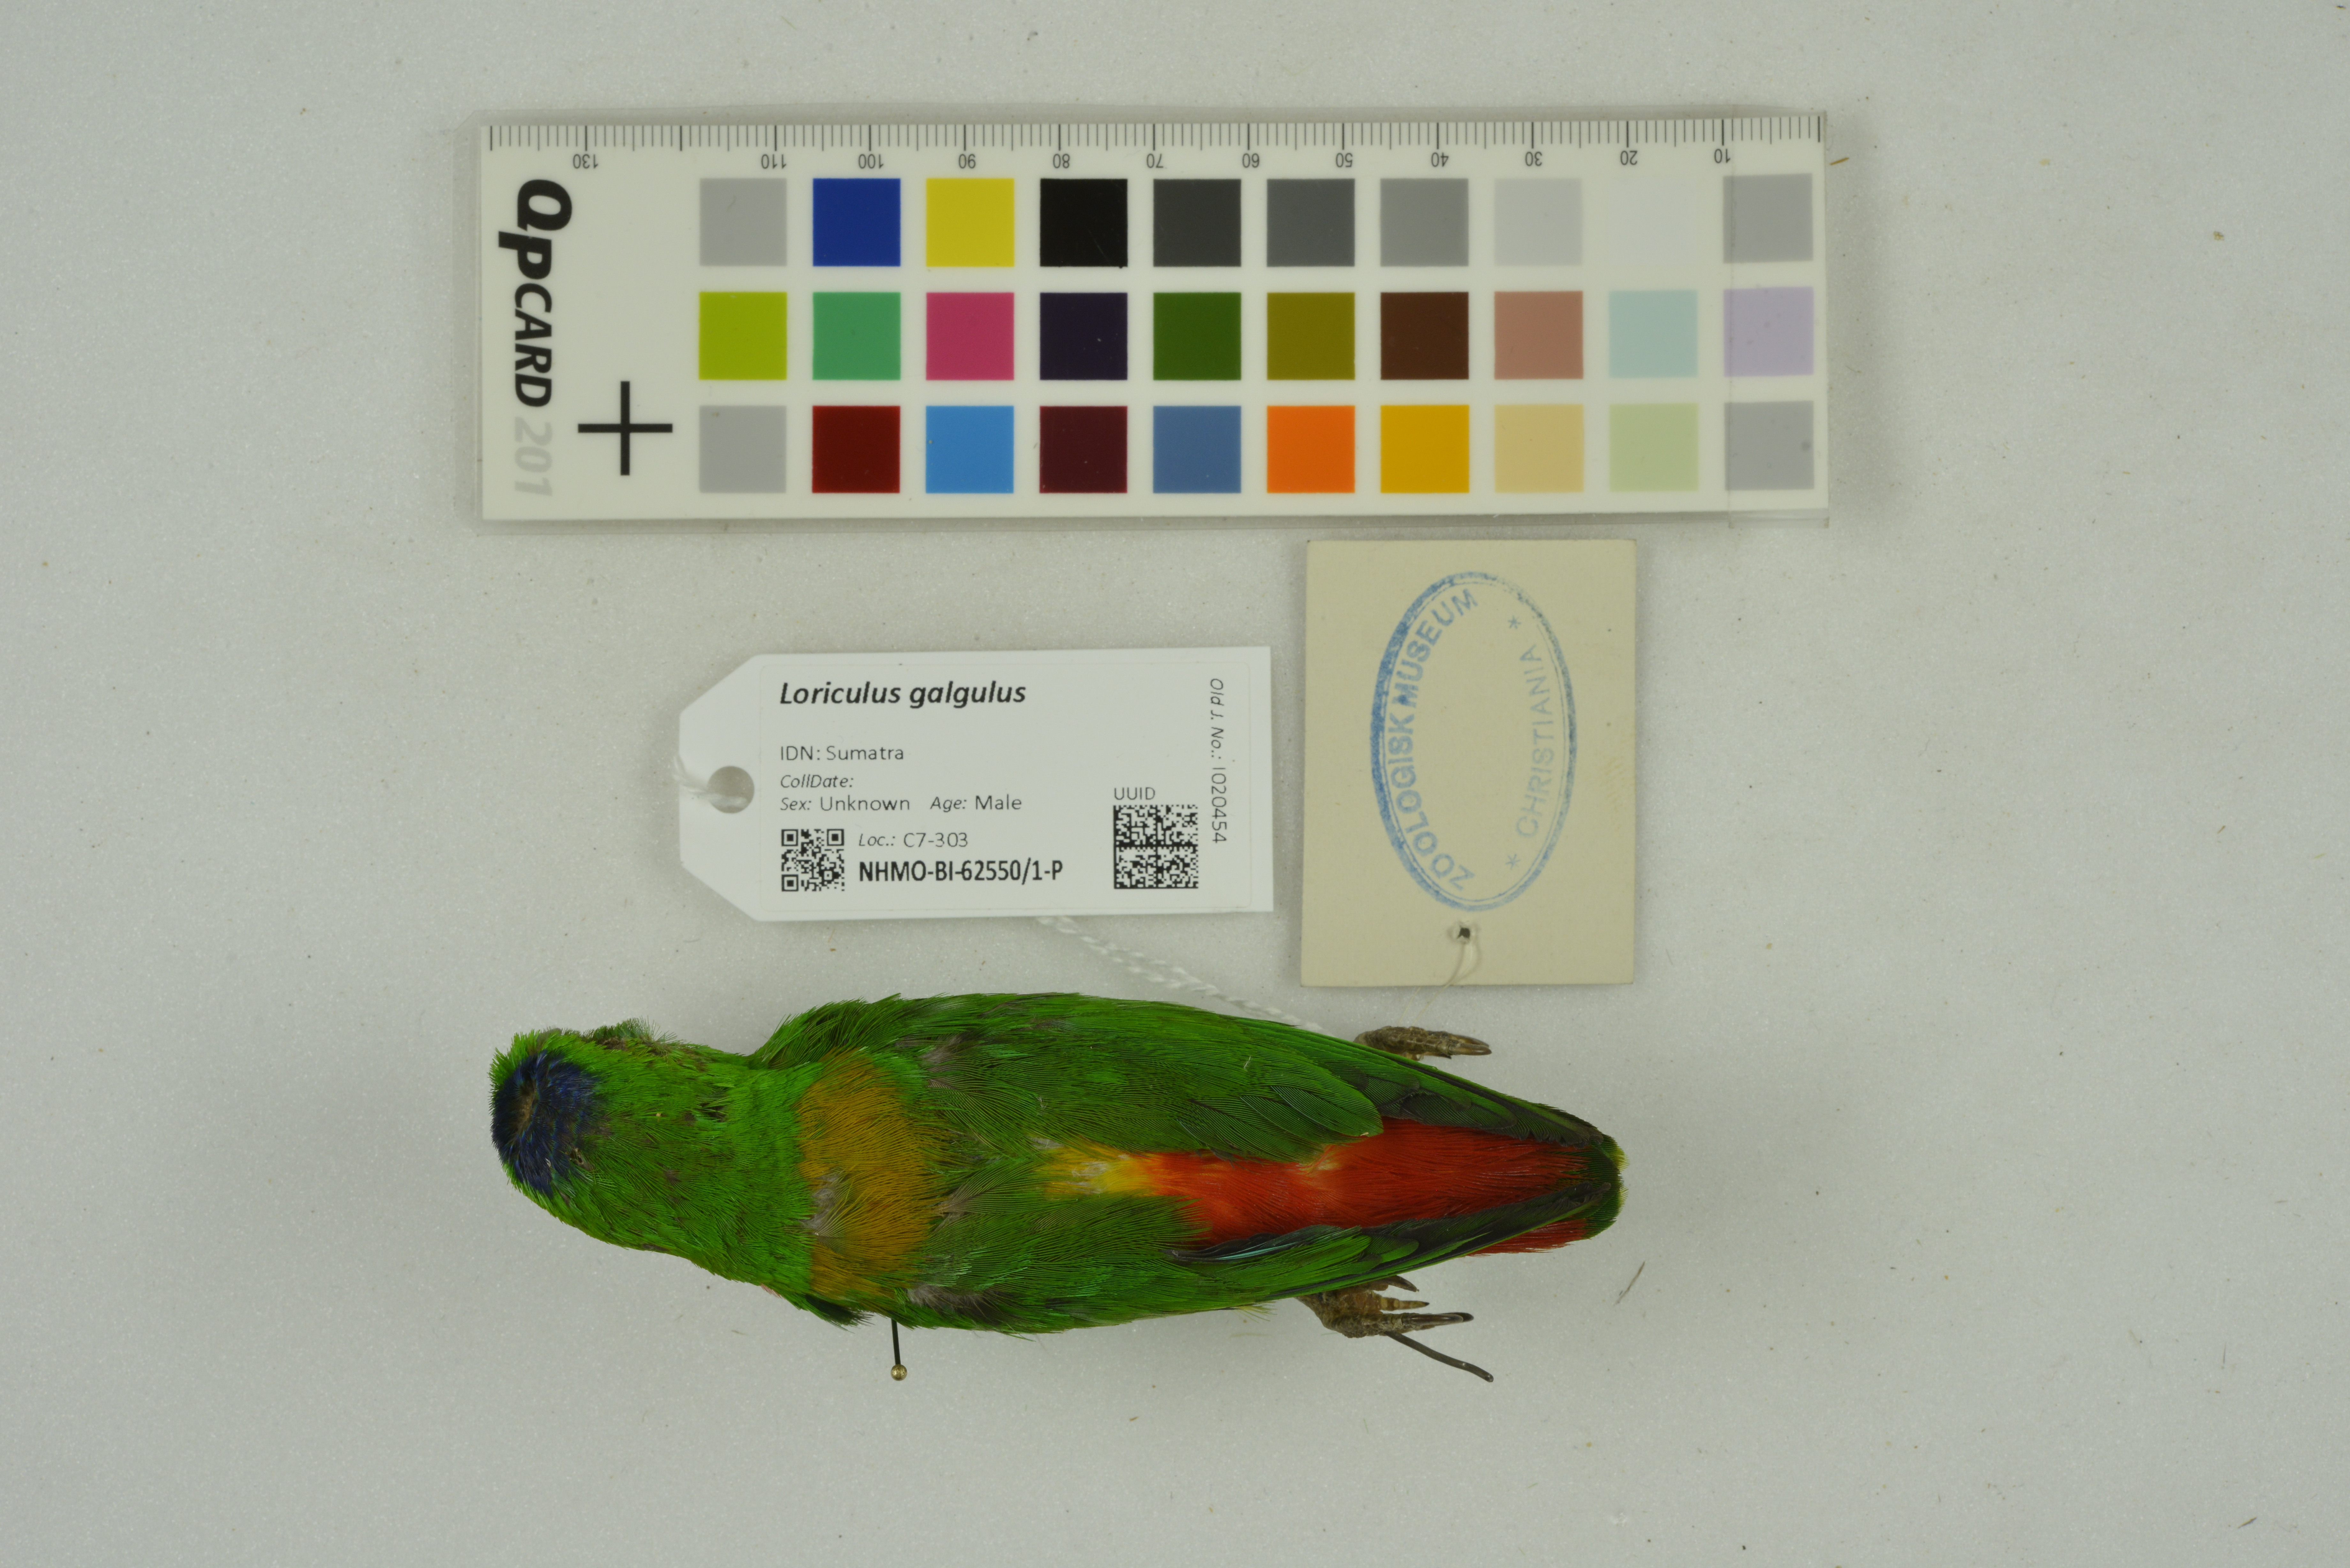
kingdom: Animalia
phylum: Chordata
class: Aves
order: Psittaciformes
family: Psittacidae
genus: Loriculus
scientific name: Loriculus galgulus
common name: Blue-crowned hanging parrot
